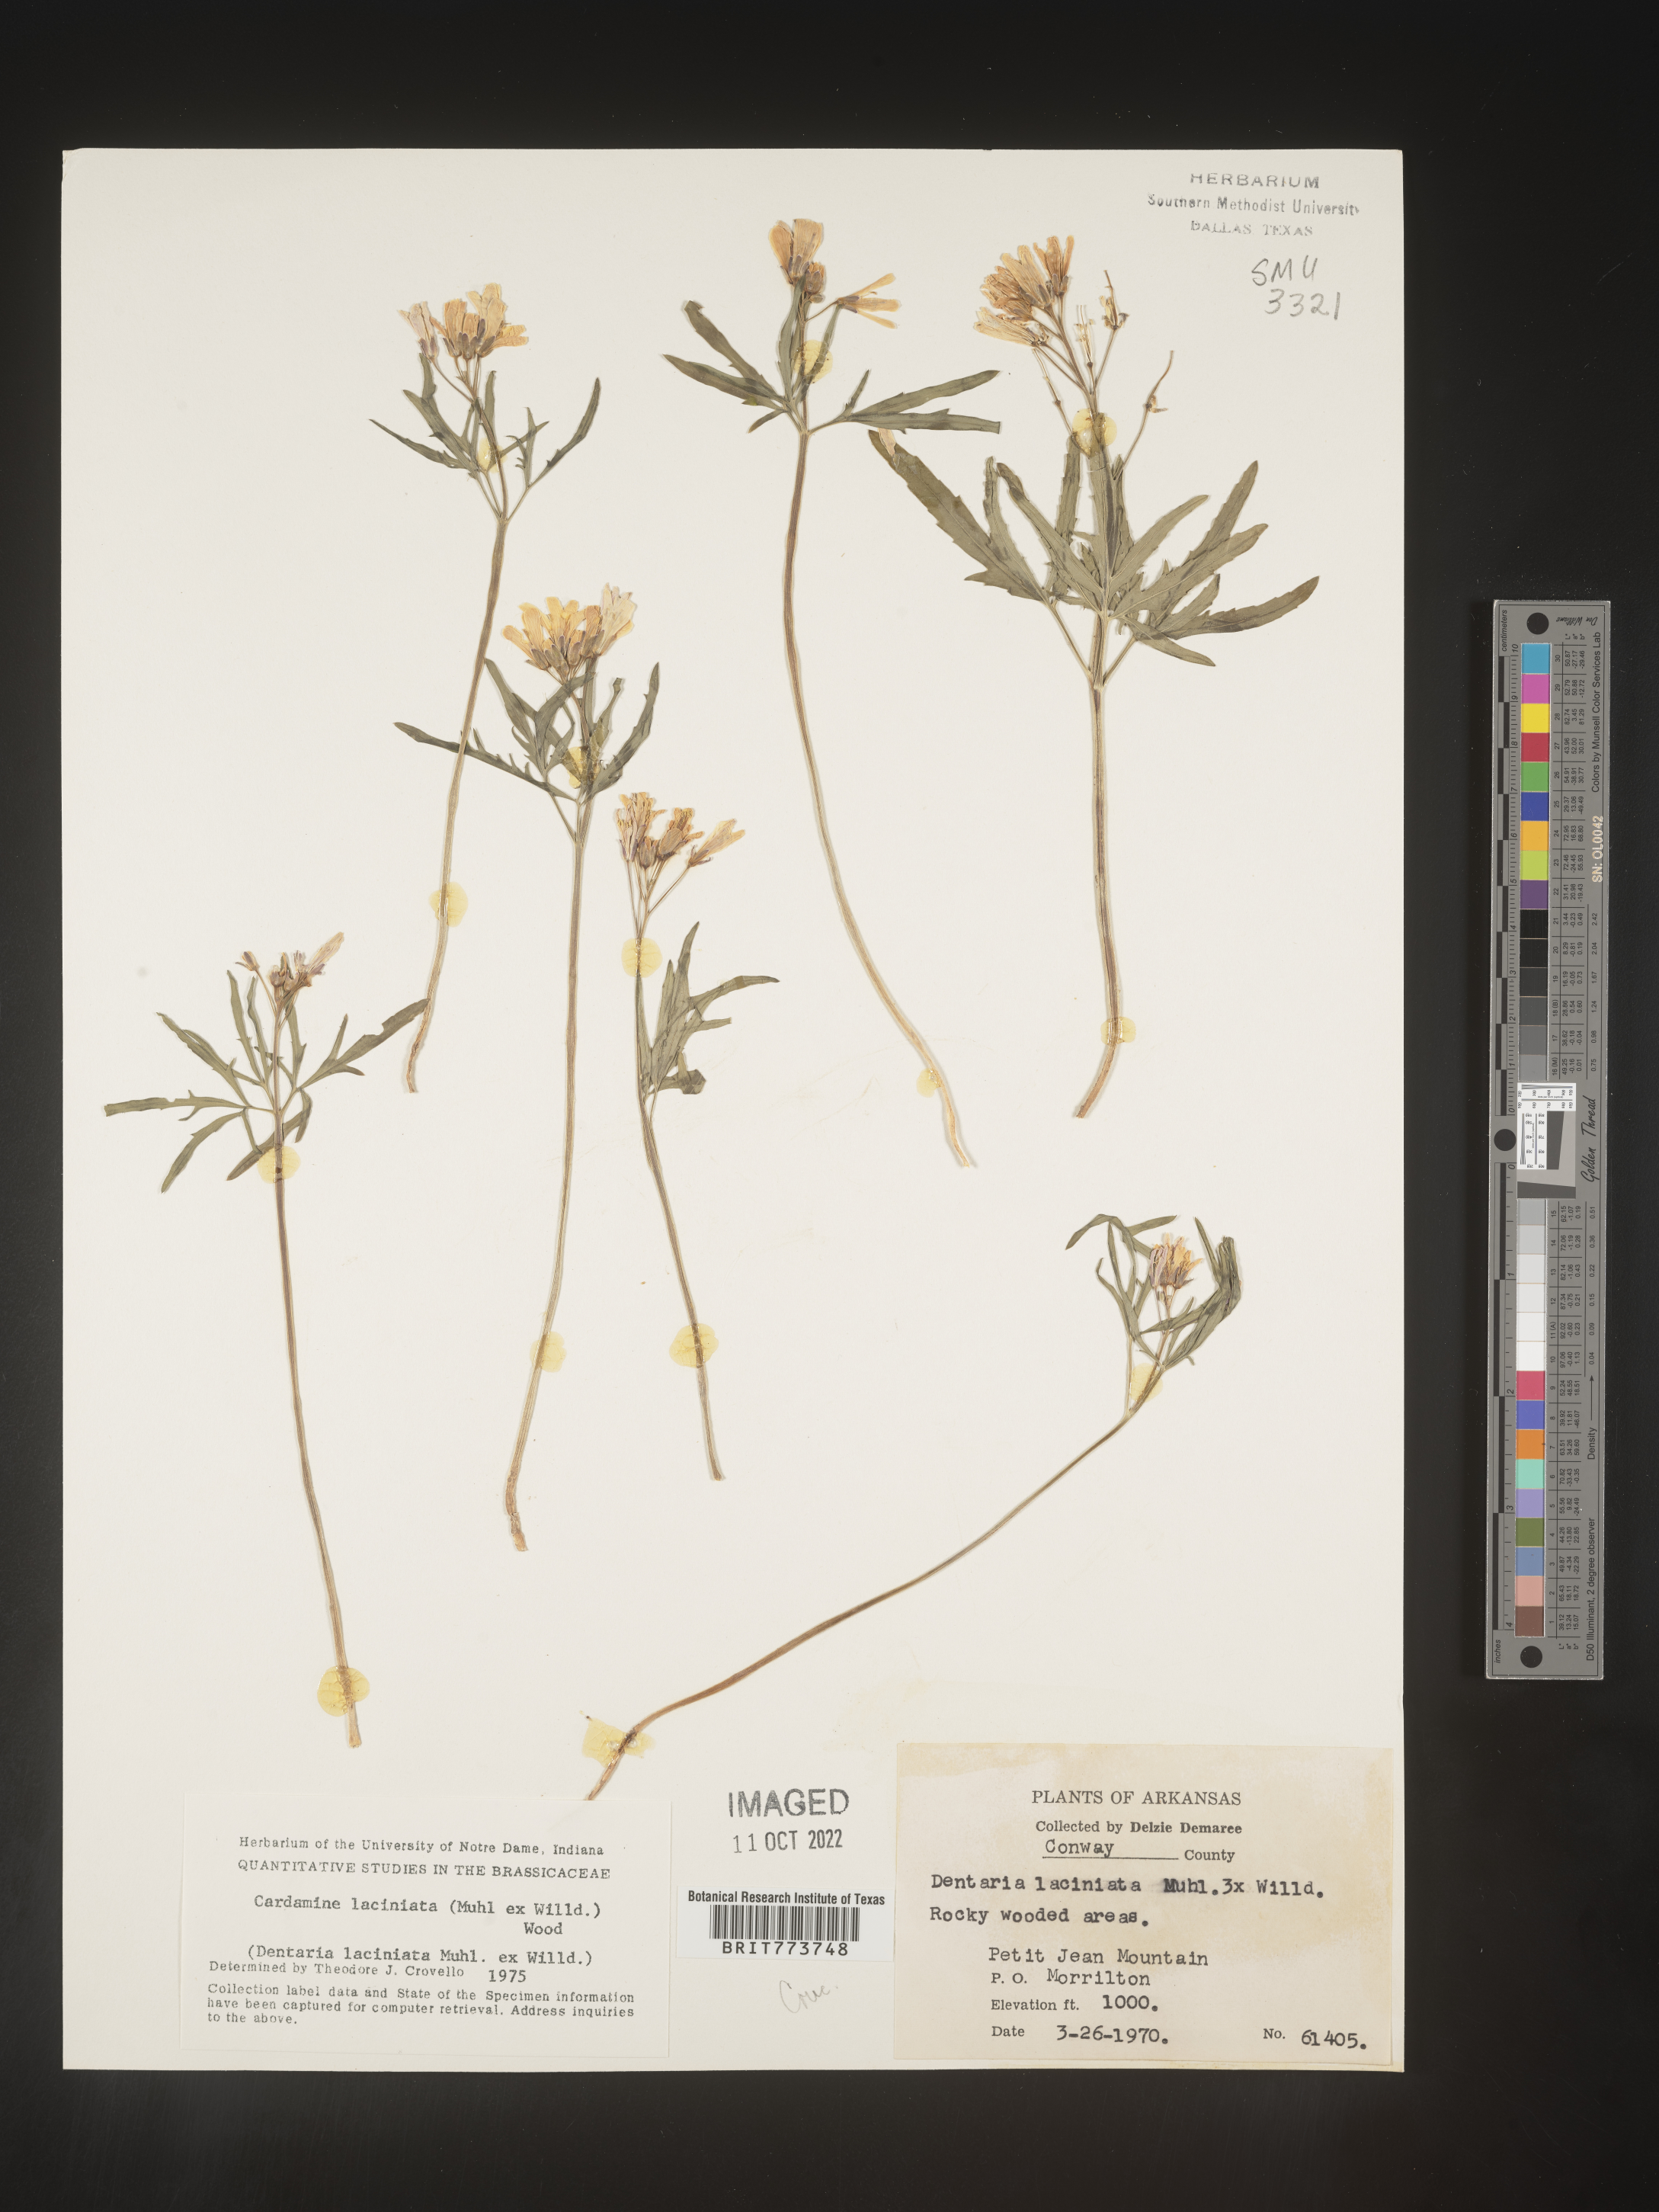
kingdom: Plantae
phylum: Tracheophyta
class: Magnoliopsida
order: Brassicales
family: Brassicaceae
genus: Rorippa
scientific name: Rorippa laciniata
